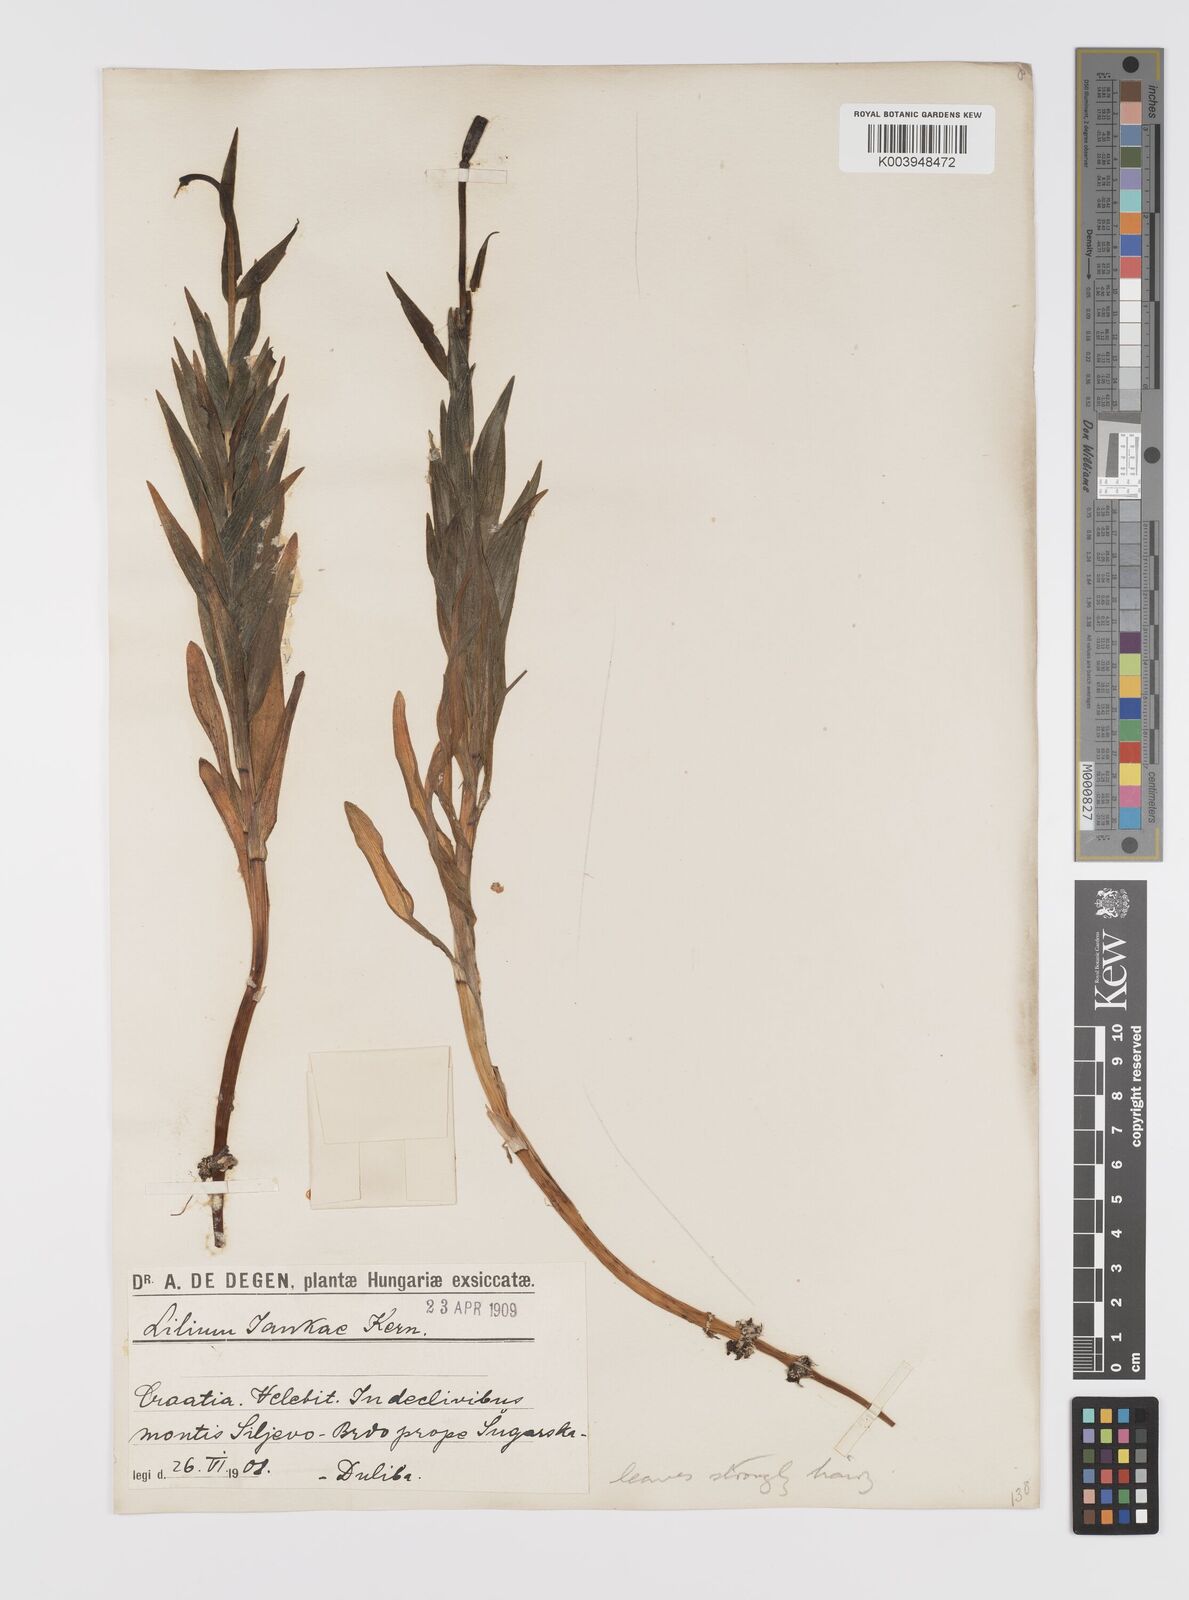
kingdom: Plantae
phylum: Tracheophyta
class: Liliopsida
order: Liliales
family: Liliaceae
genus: Lilium
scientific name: Lilium catesbaei
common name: Catesby's lily
